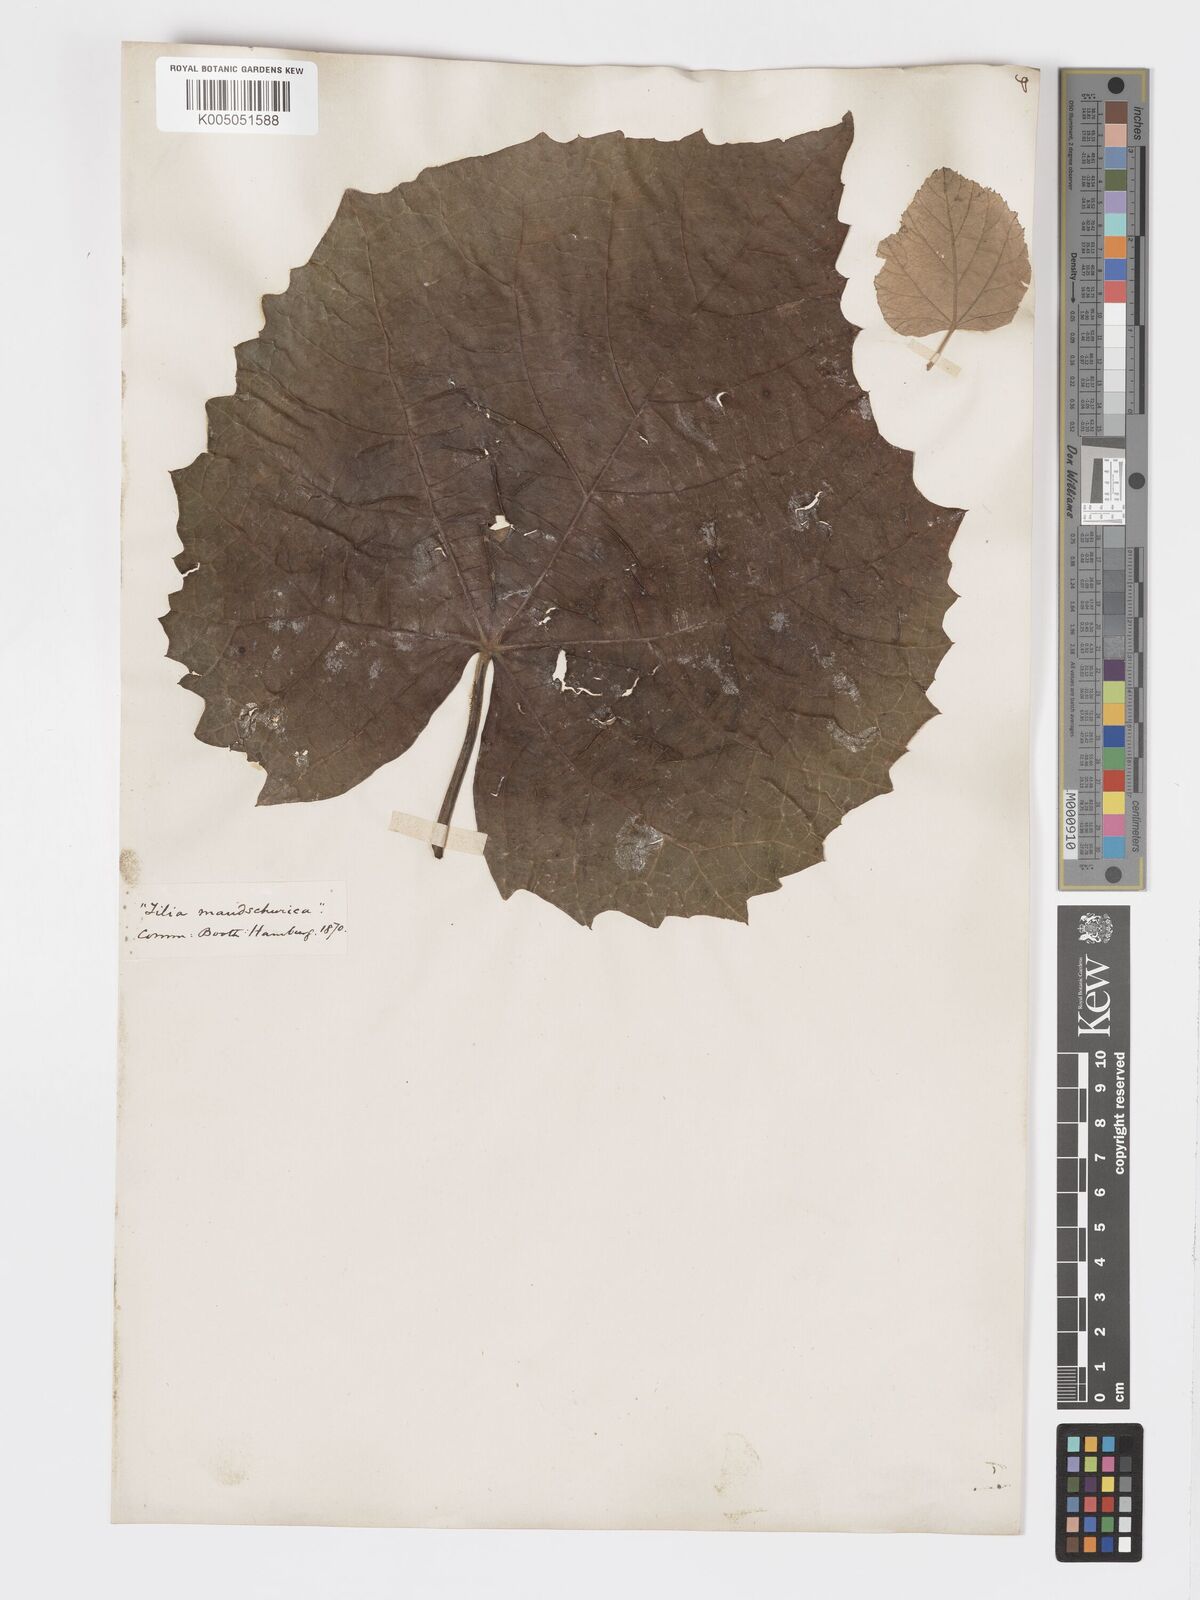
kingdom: Plantae
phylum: Tracheophyta
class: Magnoliopsida
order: Malvales
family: Malvaceae
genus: Tilia
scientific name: Tilia mandshurica
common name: Manchurian linden
